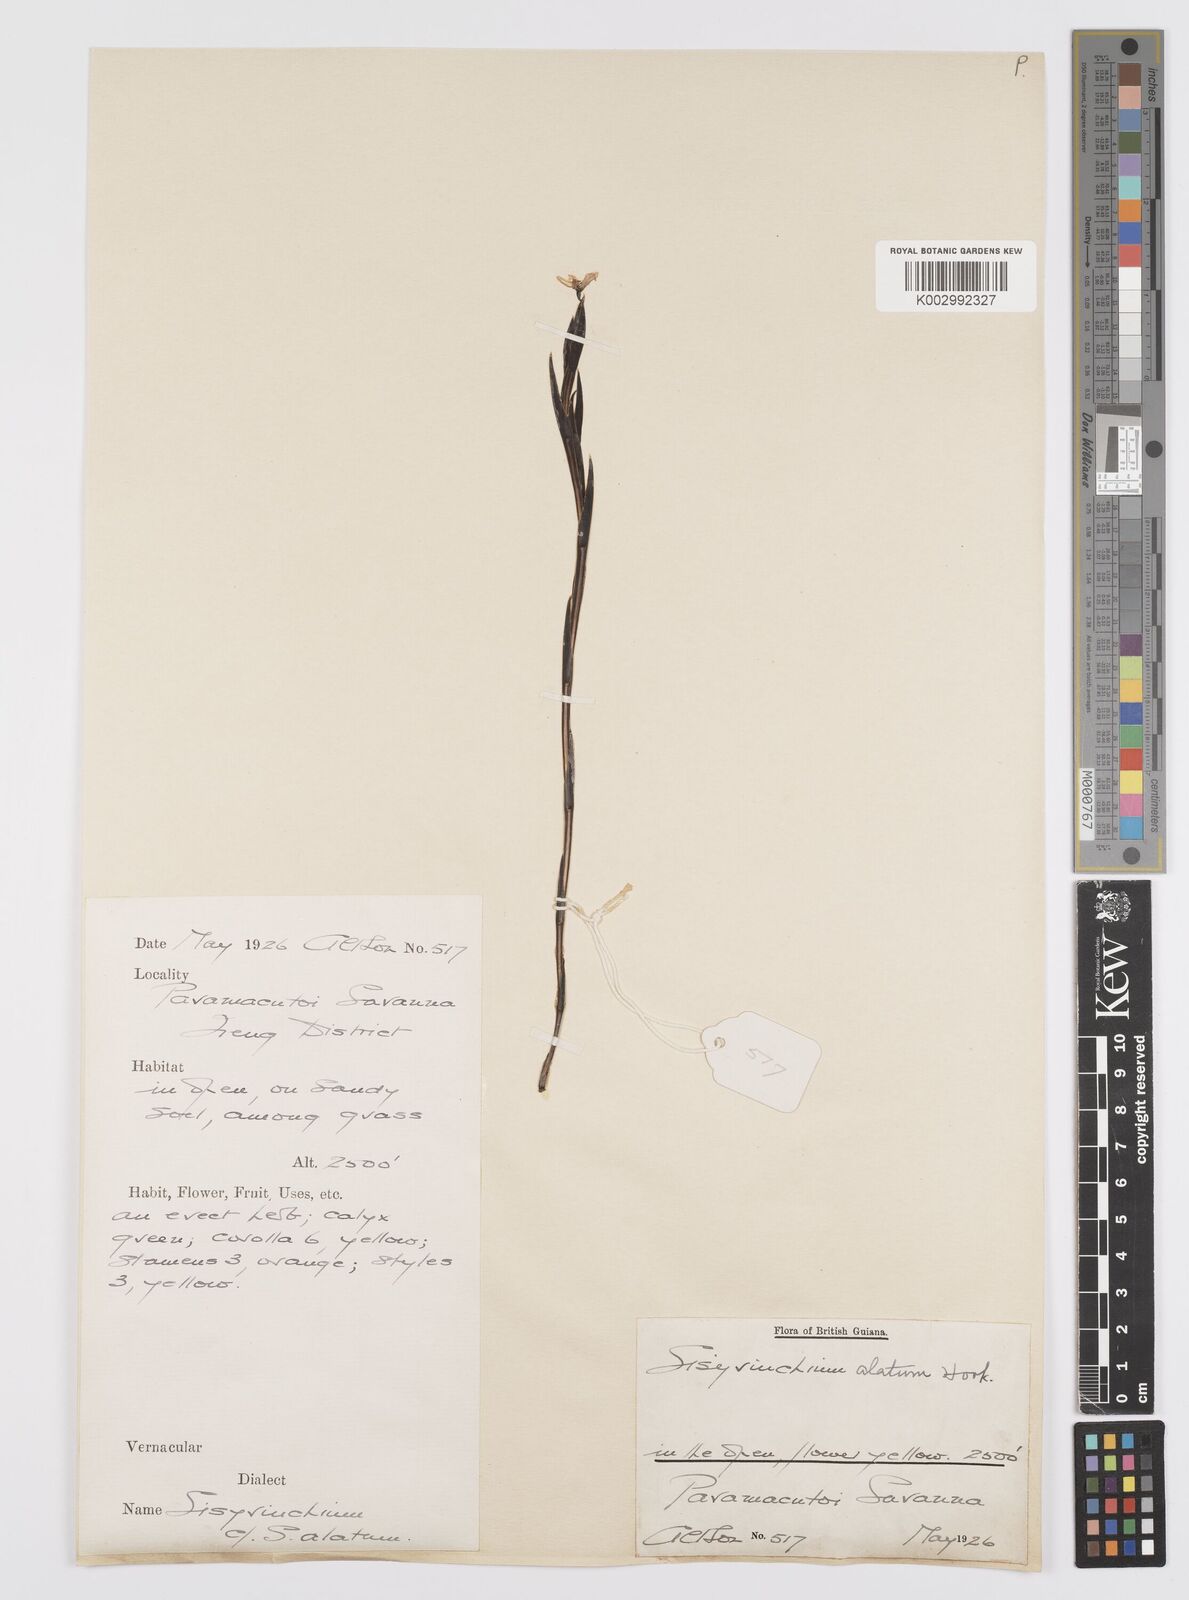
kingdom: Plantae
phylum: Tracheophyta
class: Liliopsida
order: Asparagales
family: Iridaceae
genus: Sisyrinchium
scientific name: Sisyrinchium vaginatum
